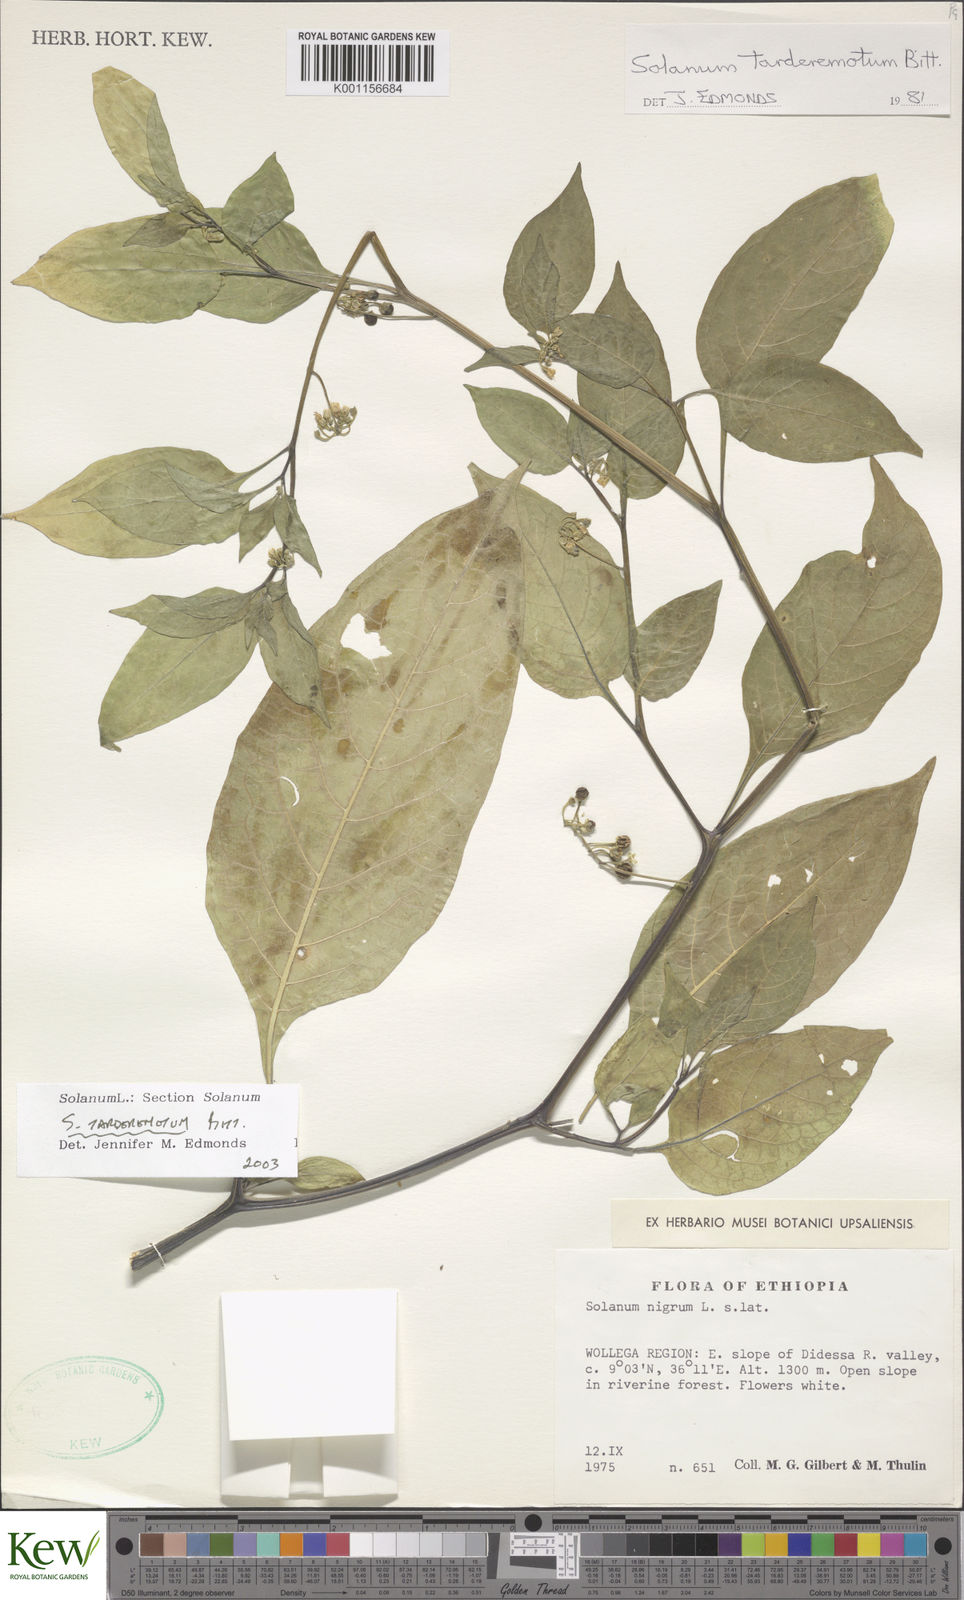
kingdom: Plantae
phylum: Tracheophyta
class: Magnoliopsida
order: Solanales
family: Solanaceae
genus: Solanum
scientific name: Solanum tarderemotum
